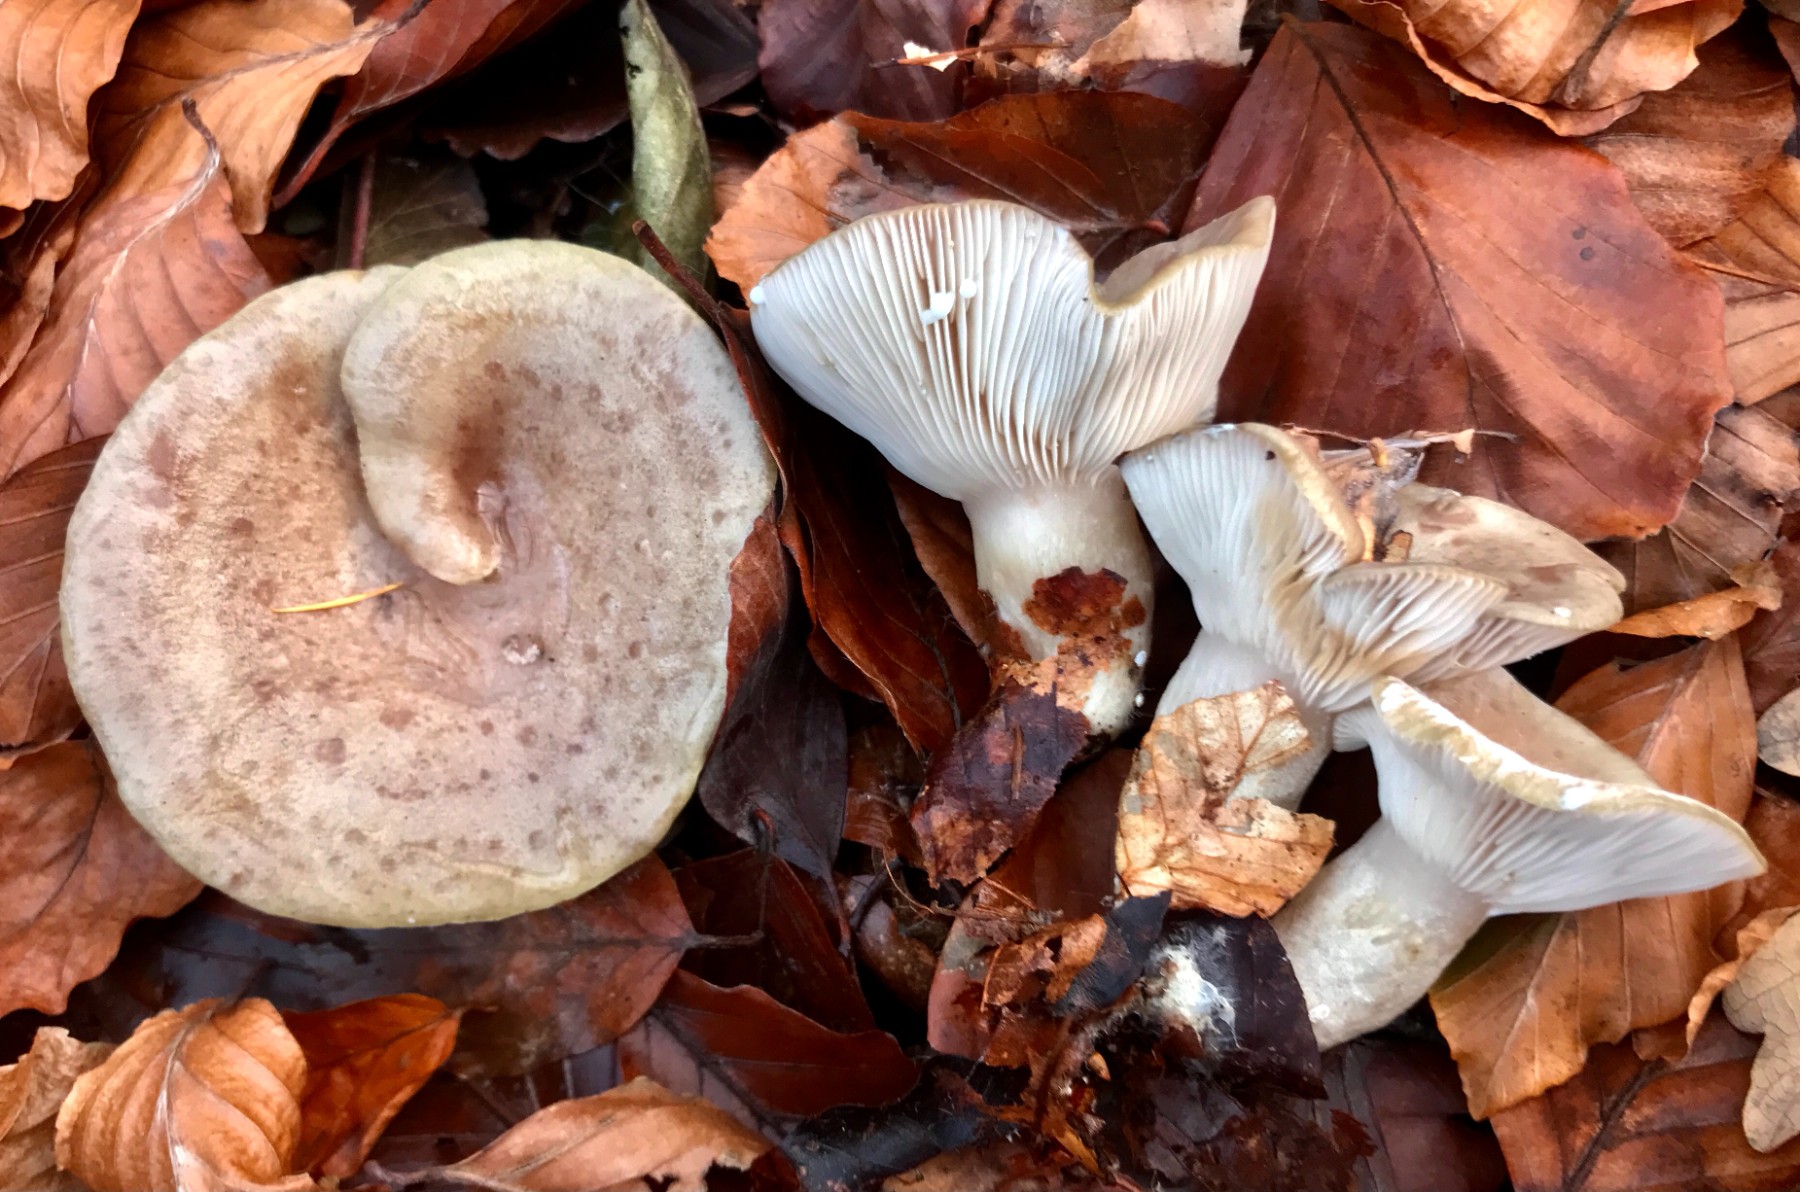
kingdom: Fungi
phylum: Basidiomycota
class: Agaricomycetes
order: Russulales
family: Russulaceae
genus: Lactarius
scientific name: Lactarius blennius
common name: dråbeplettet mælkehat
